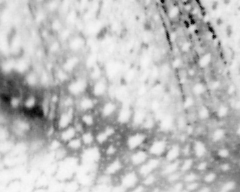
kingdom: Animalia
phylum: Chordata
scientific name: Chordata
